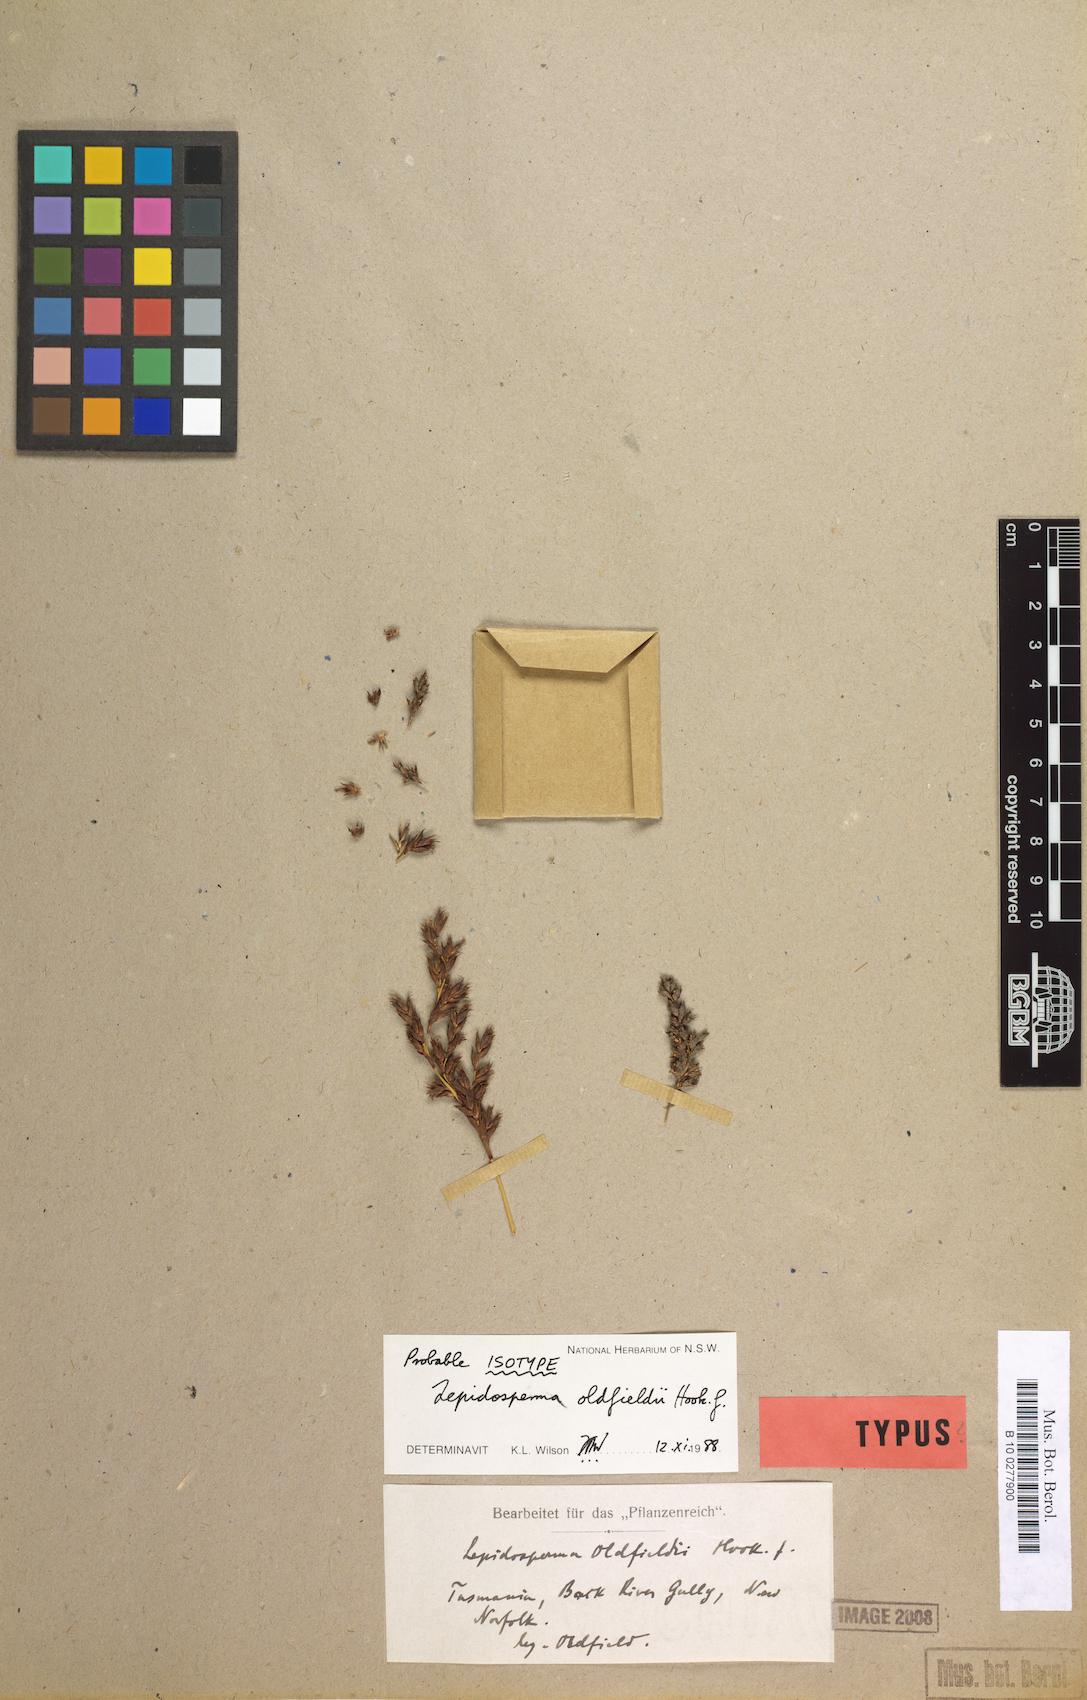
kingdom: Plantae
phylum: Tracheophyta
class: Liliopsida
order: Poales
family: Cyperaceae
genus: Lepidosperma
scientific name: Lepidosperma oldfieldii
